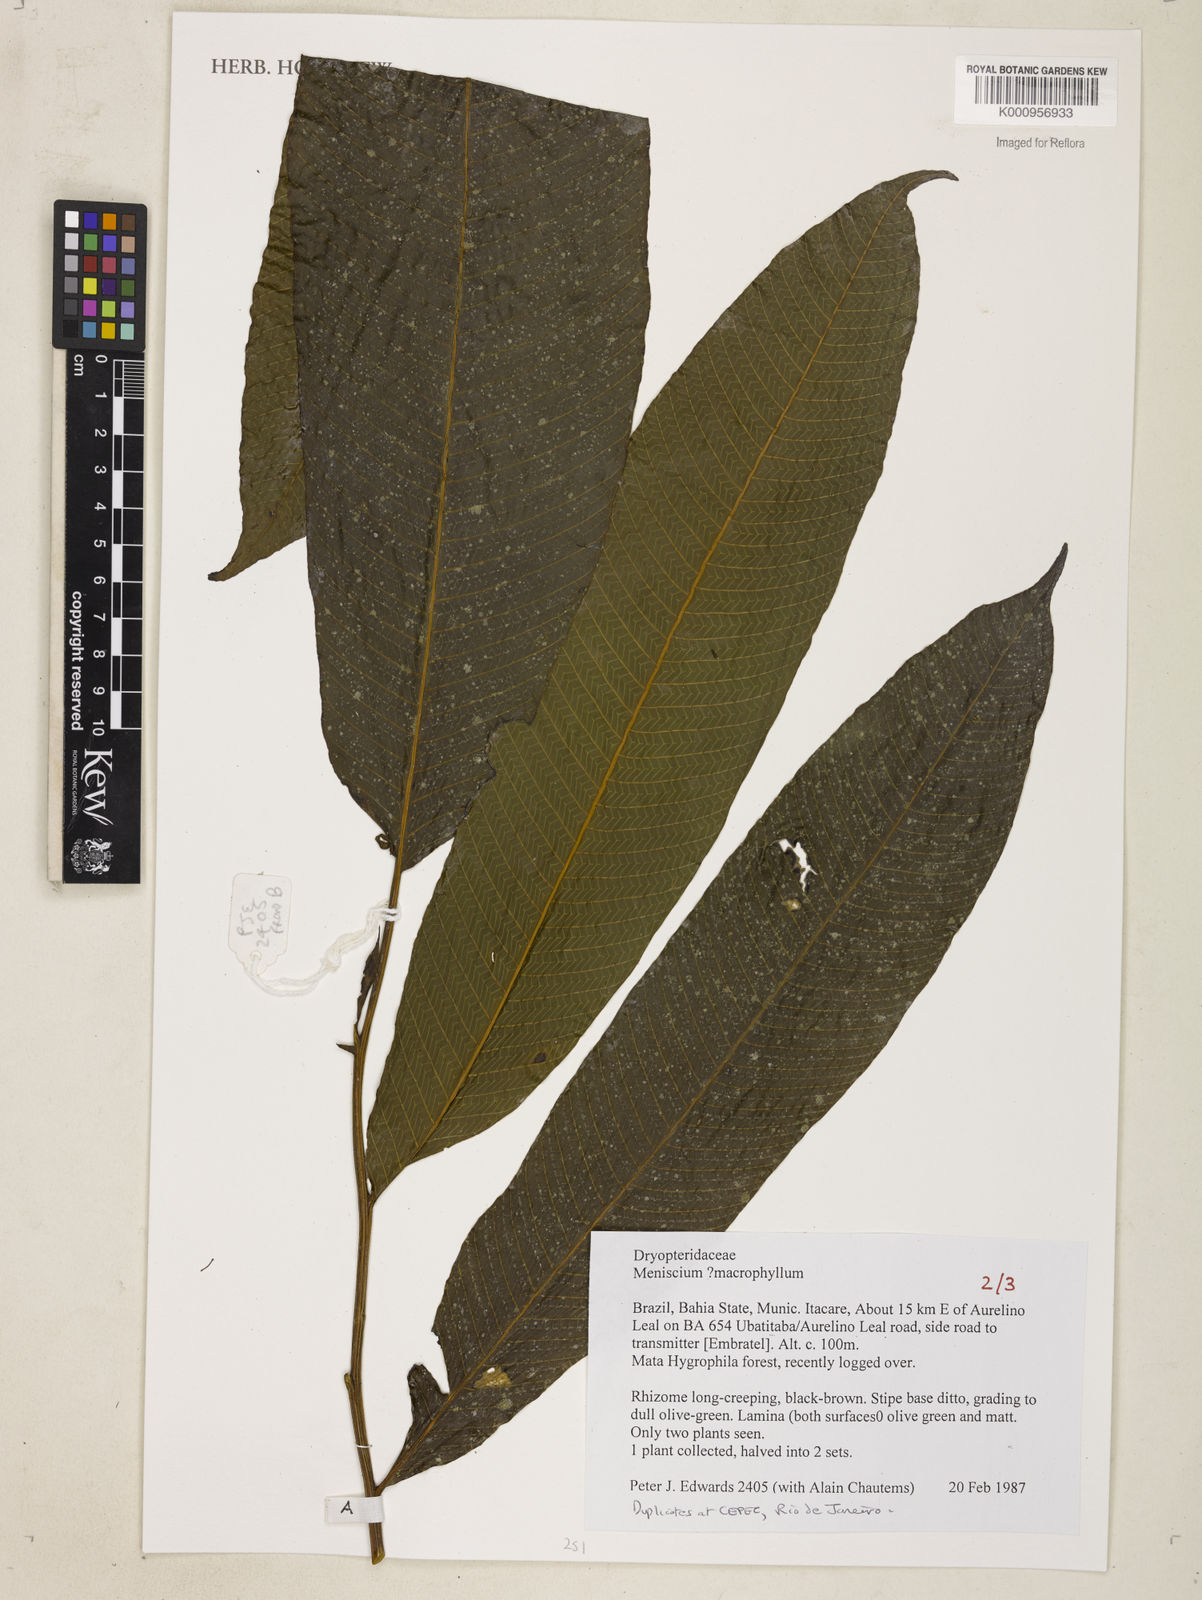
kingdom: Plantae
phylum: Tracheophyta
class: Polypodiopsida
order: Polypodiales
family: Thelypteridaceae
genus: Meniscium
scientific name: Meniscium macrophyllum
